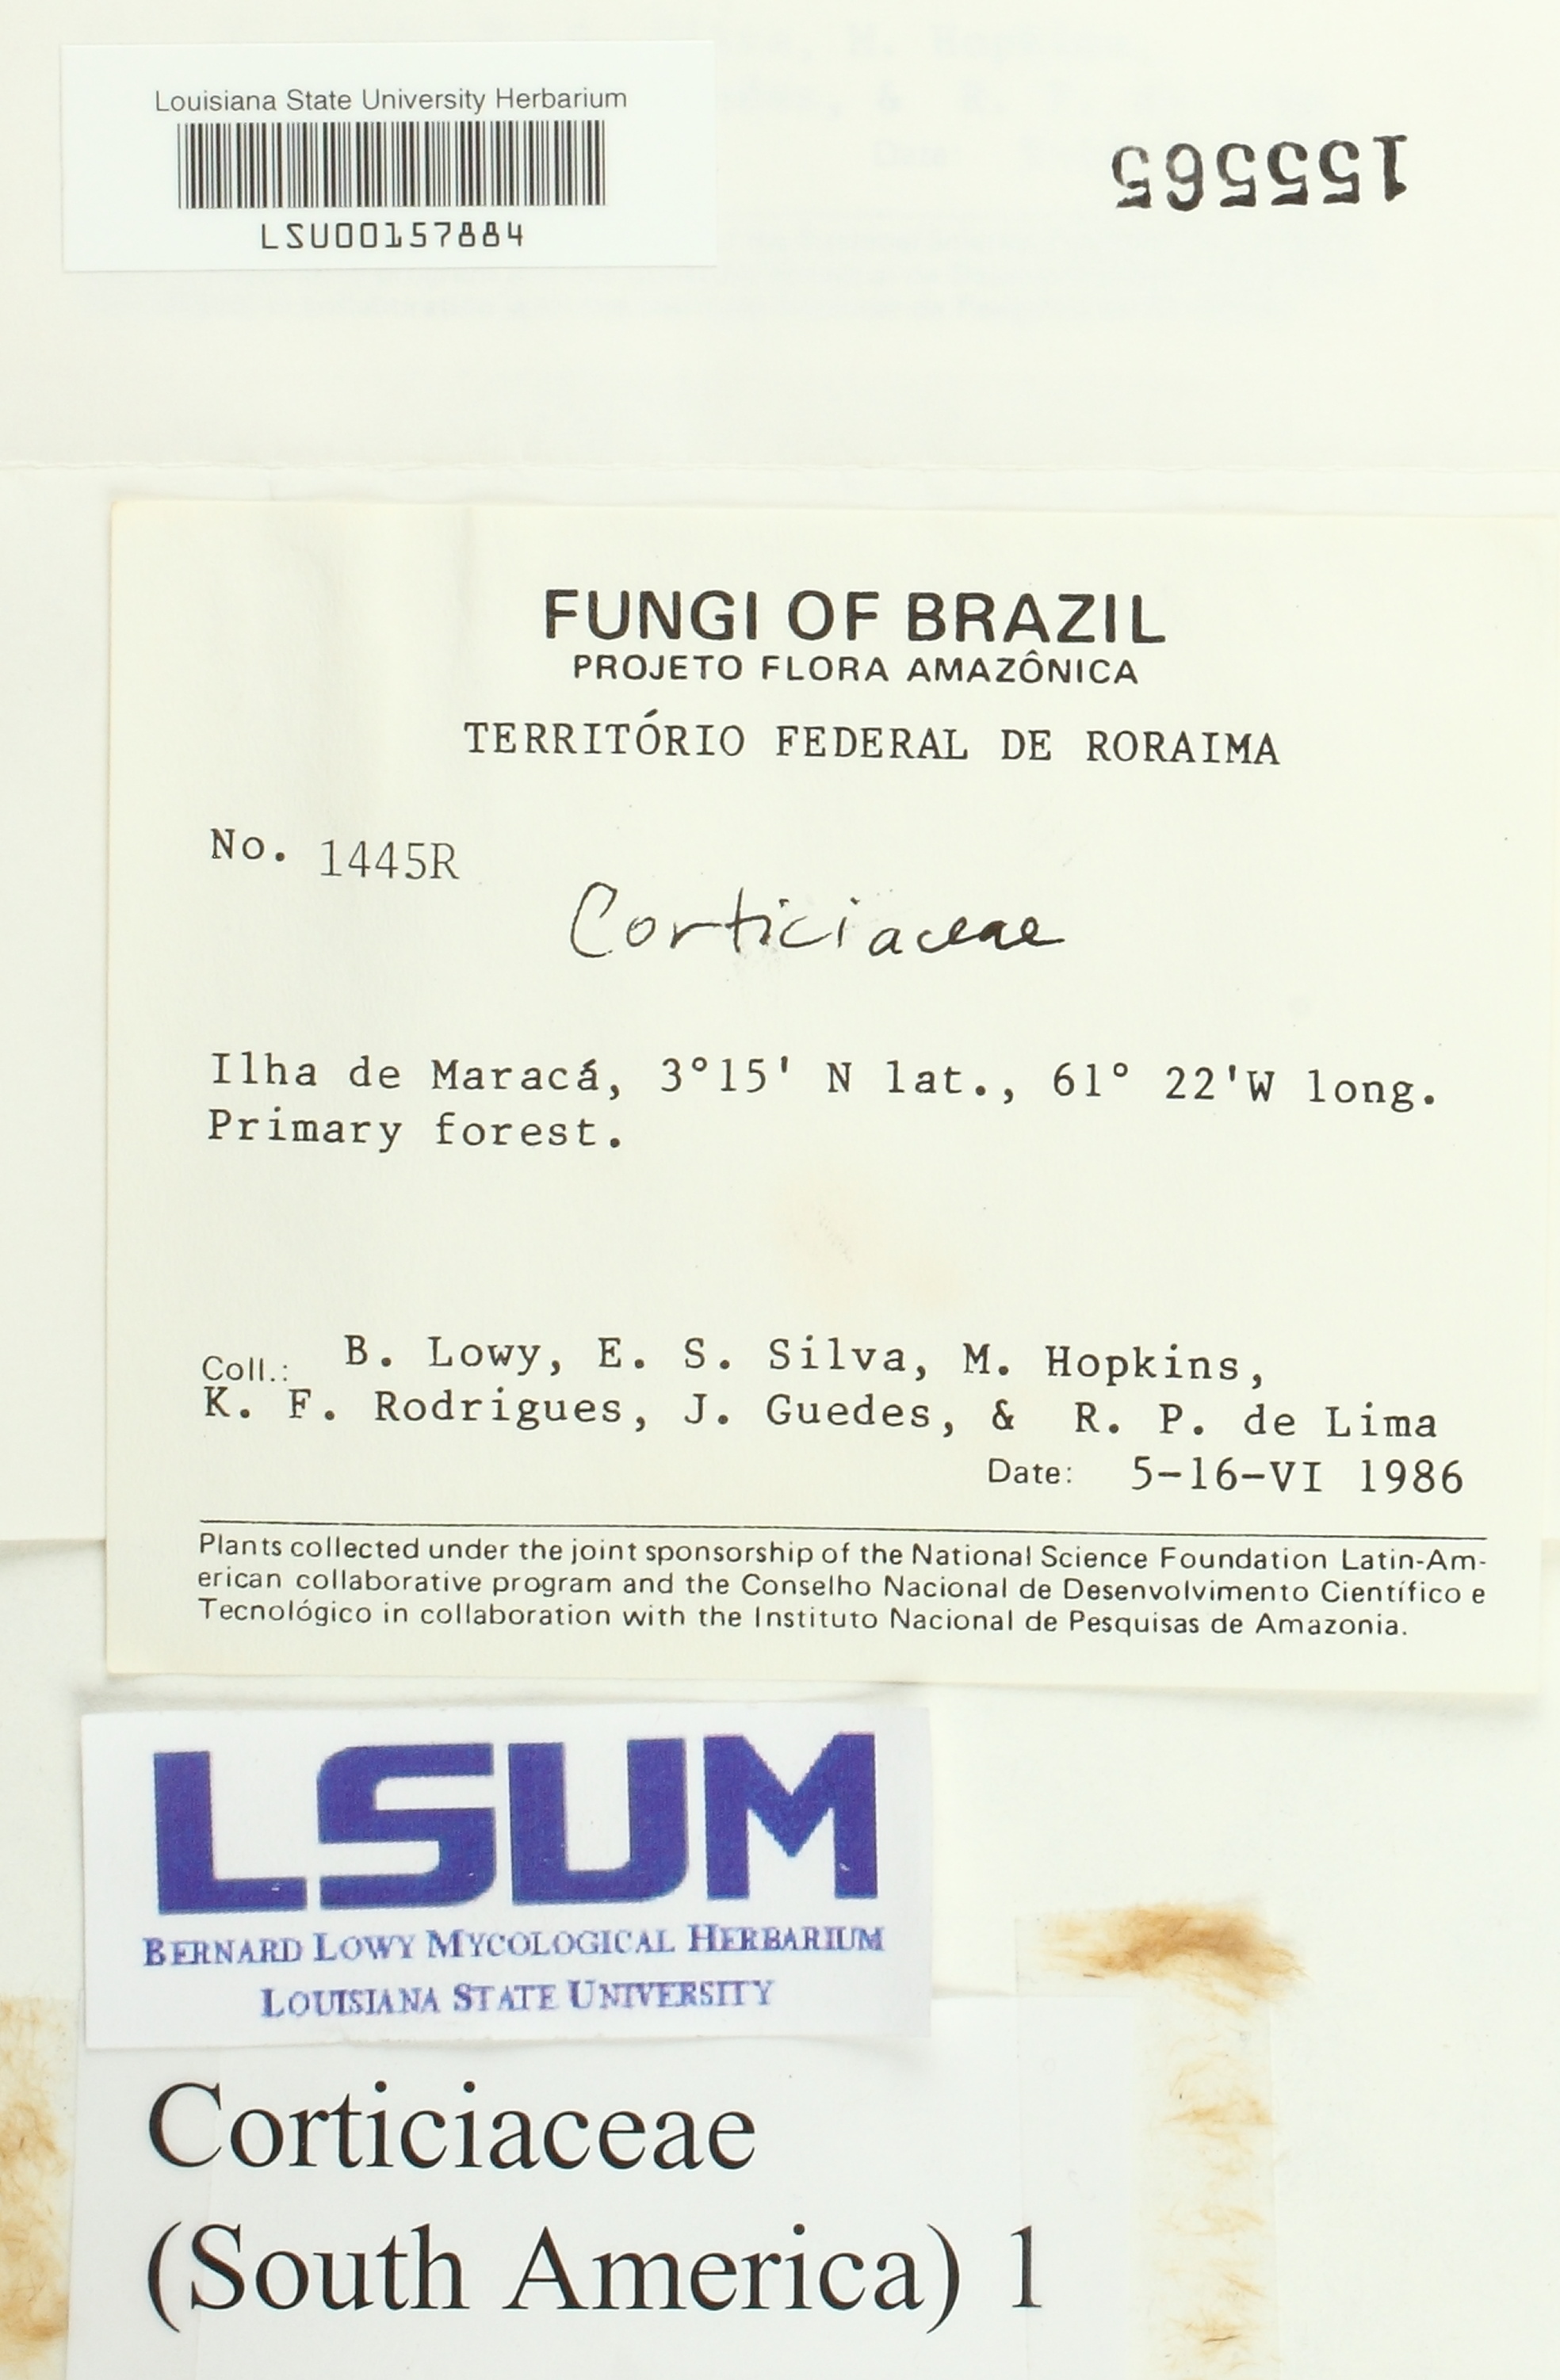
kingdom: Fungi
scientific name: Fungi
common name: Fungi
